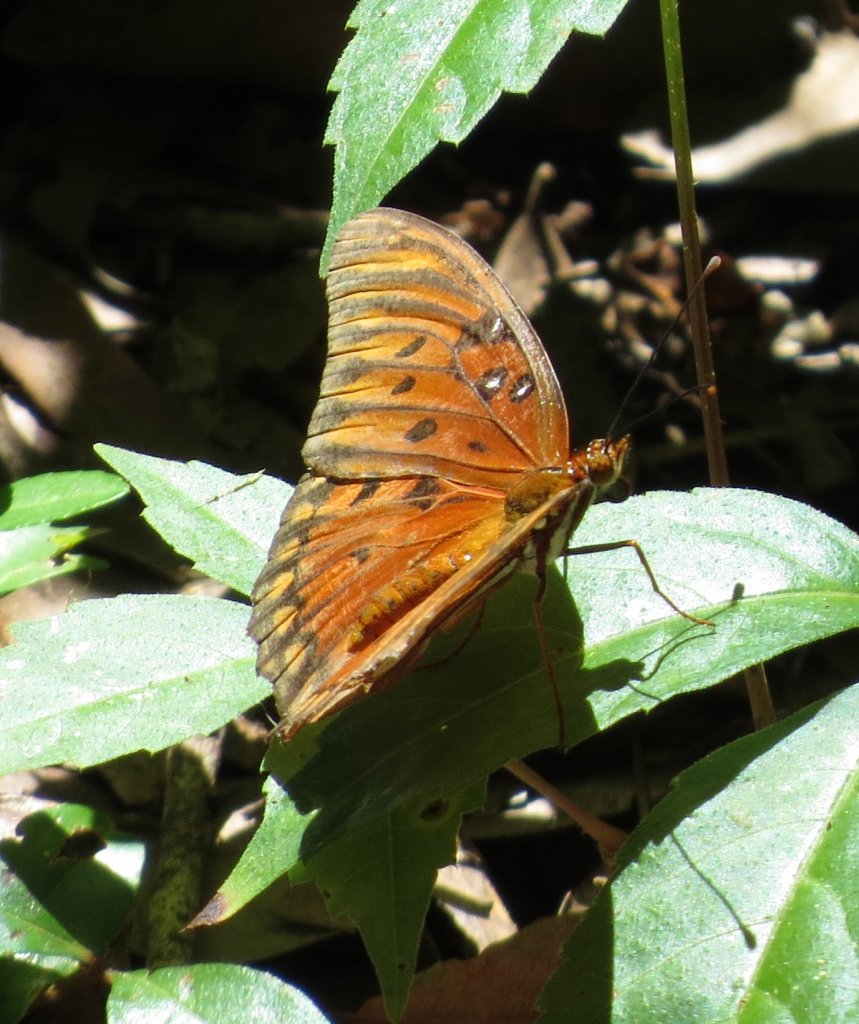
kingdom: Animalia
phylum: Arthropoda
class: Insecta
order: Lepidoptera
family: Nymphalidae
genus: Dione
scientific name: Dione vanillae
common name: Gulf Fritillary
